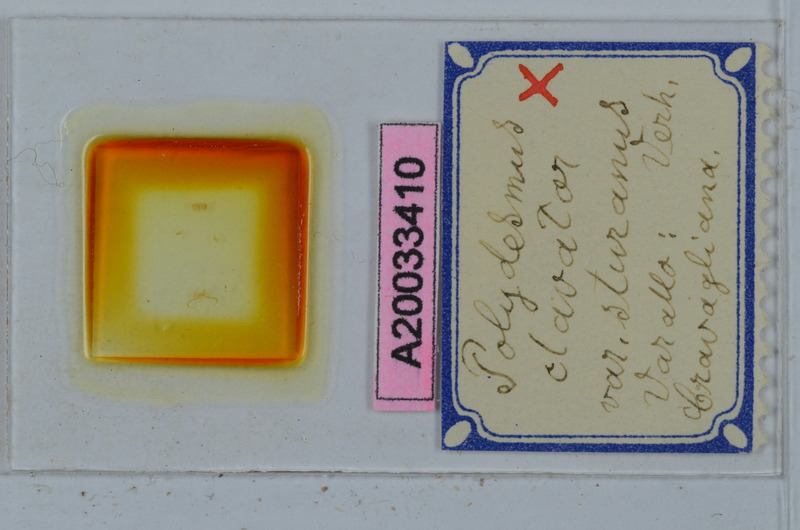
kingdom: Animalia
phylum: Arthropoda
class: Diplopoda
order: Polydesmida
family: Polydesmidae
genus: Polydesmus
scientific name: Polydesmus clavator
